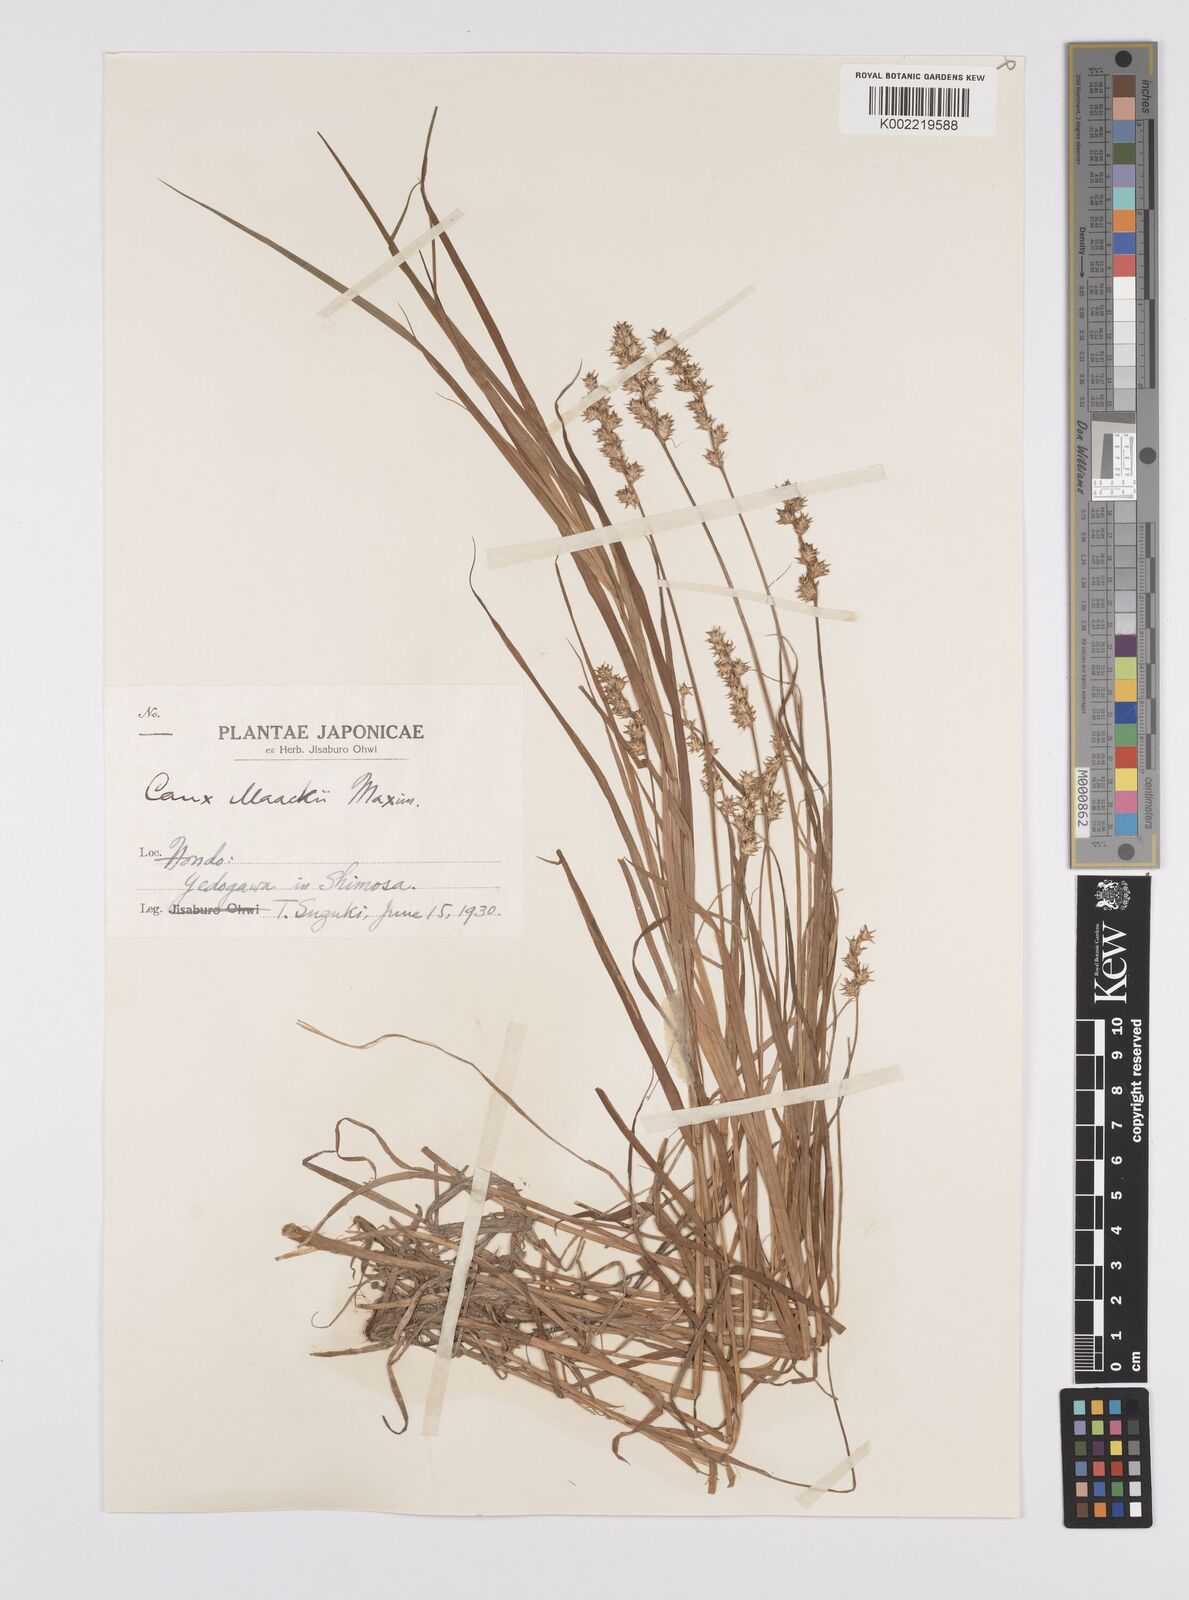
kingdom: Plantae
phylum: Tracheophyta
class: Liliopsida
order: Poales
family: Cyperaceae
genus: Carex
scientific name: Carex maackii
